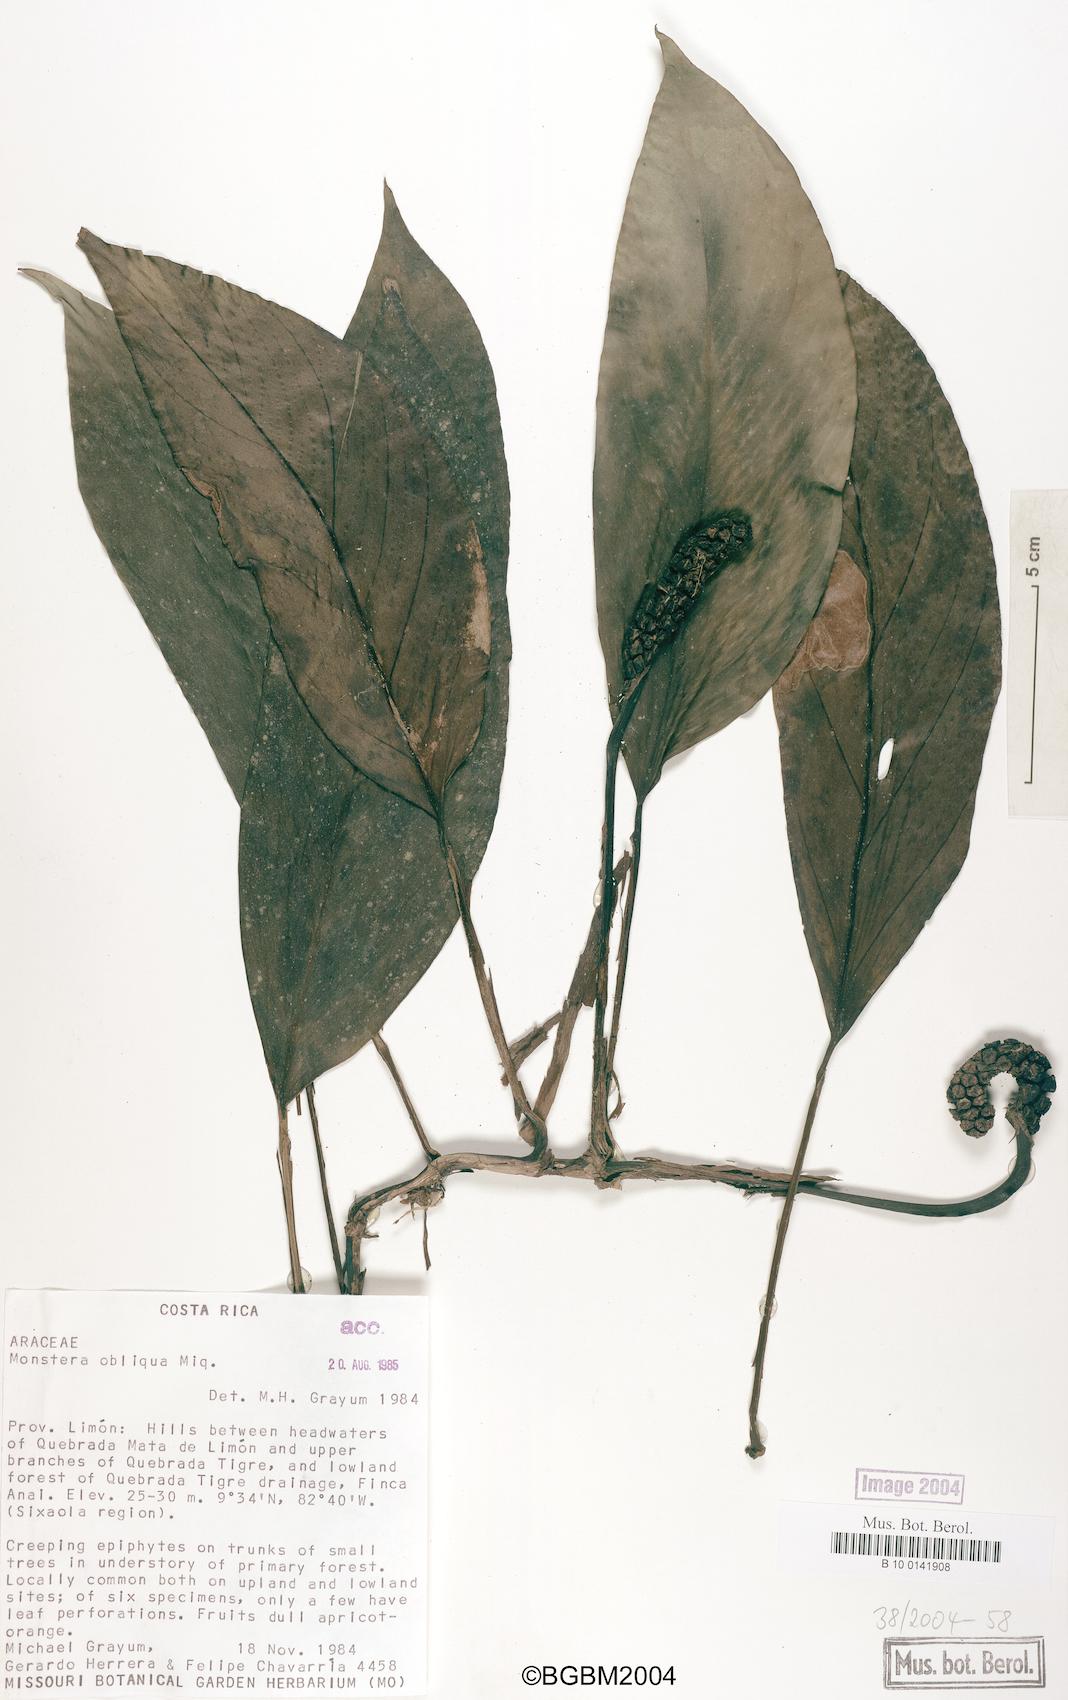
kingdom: Plantae
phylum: Tracheophyta
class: Liliopsida
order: Alismatales
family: Araceae
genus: Monstera
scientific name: Monstera obliqua
